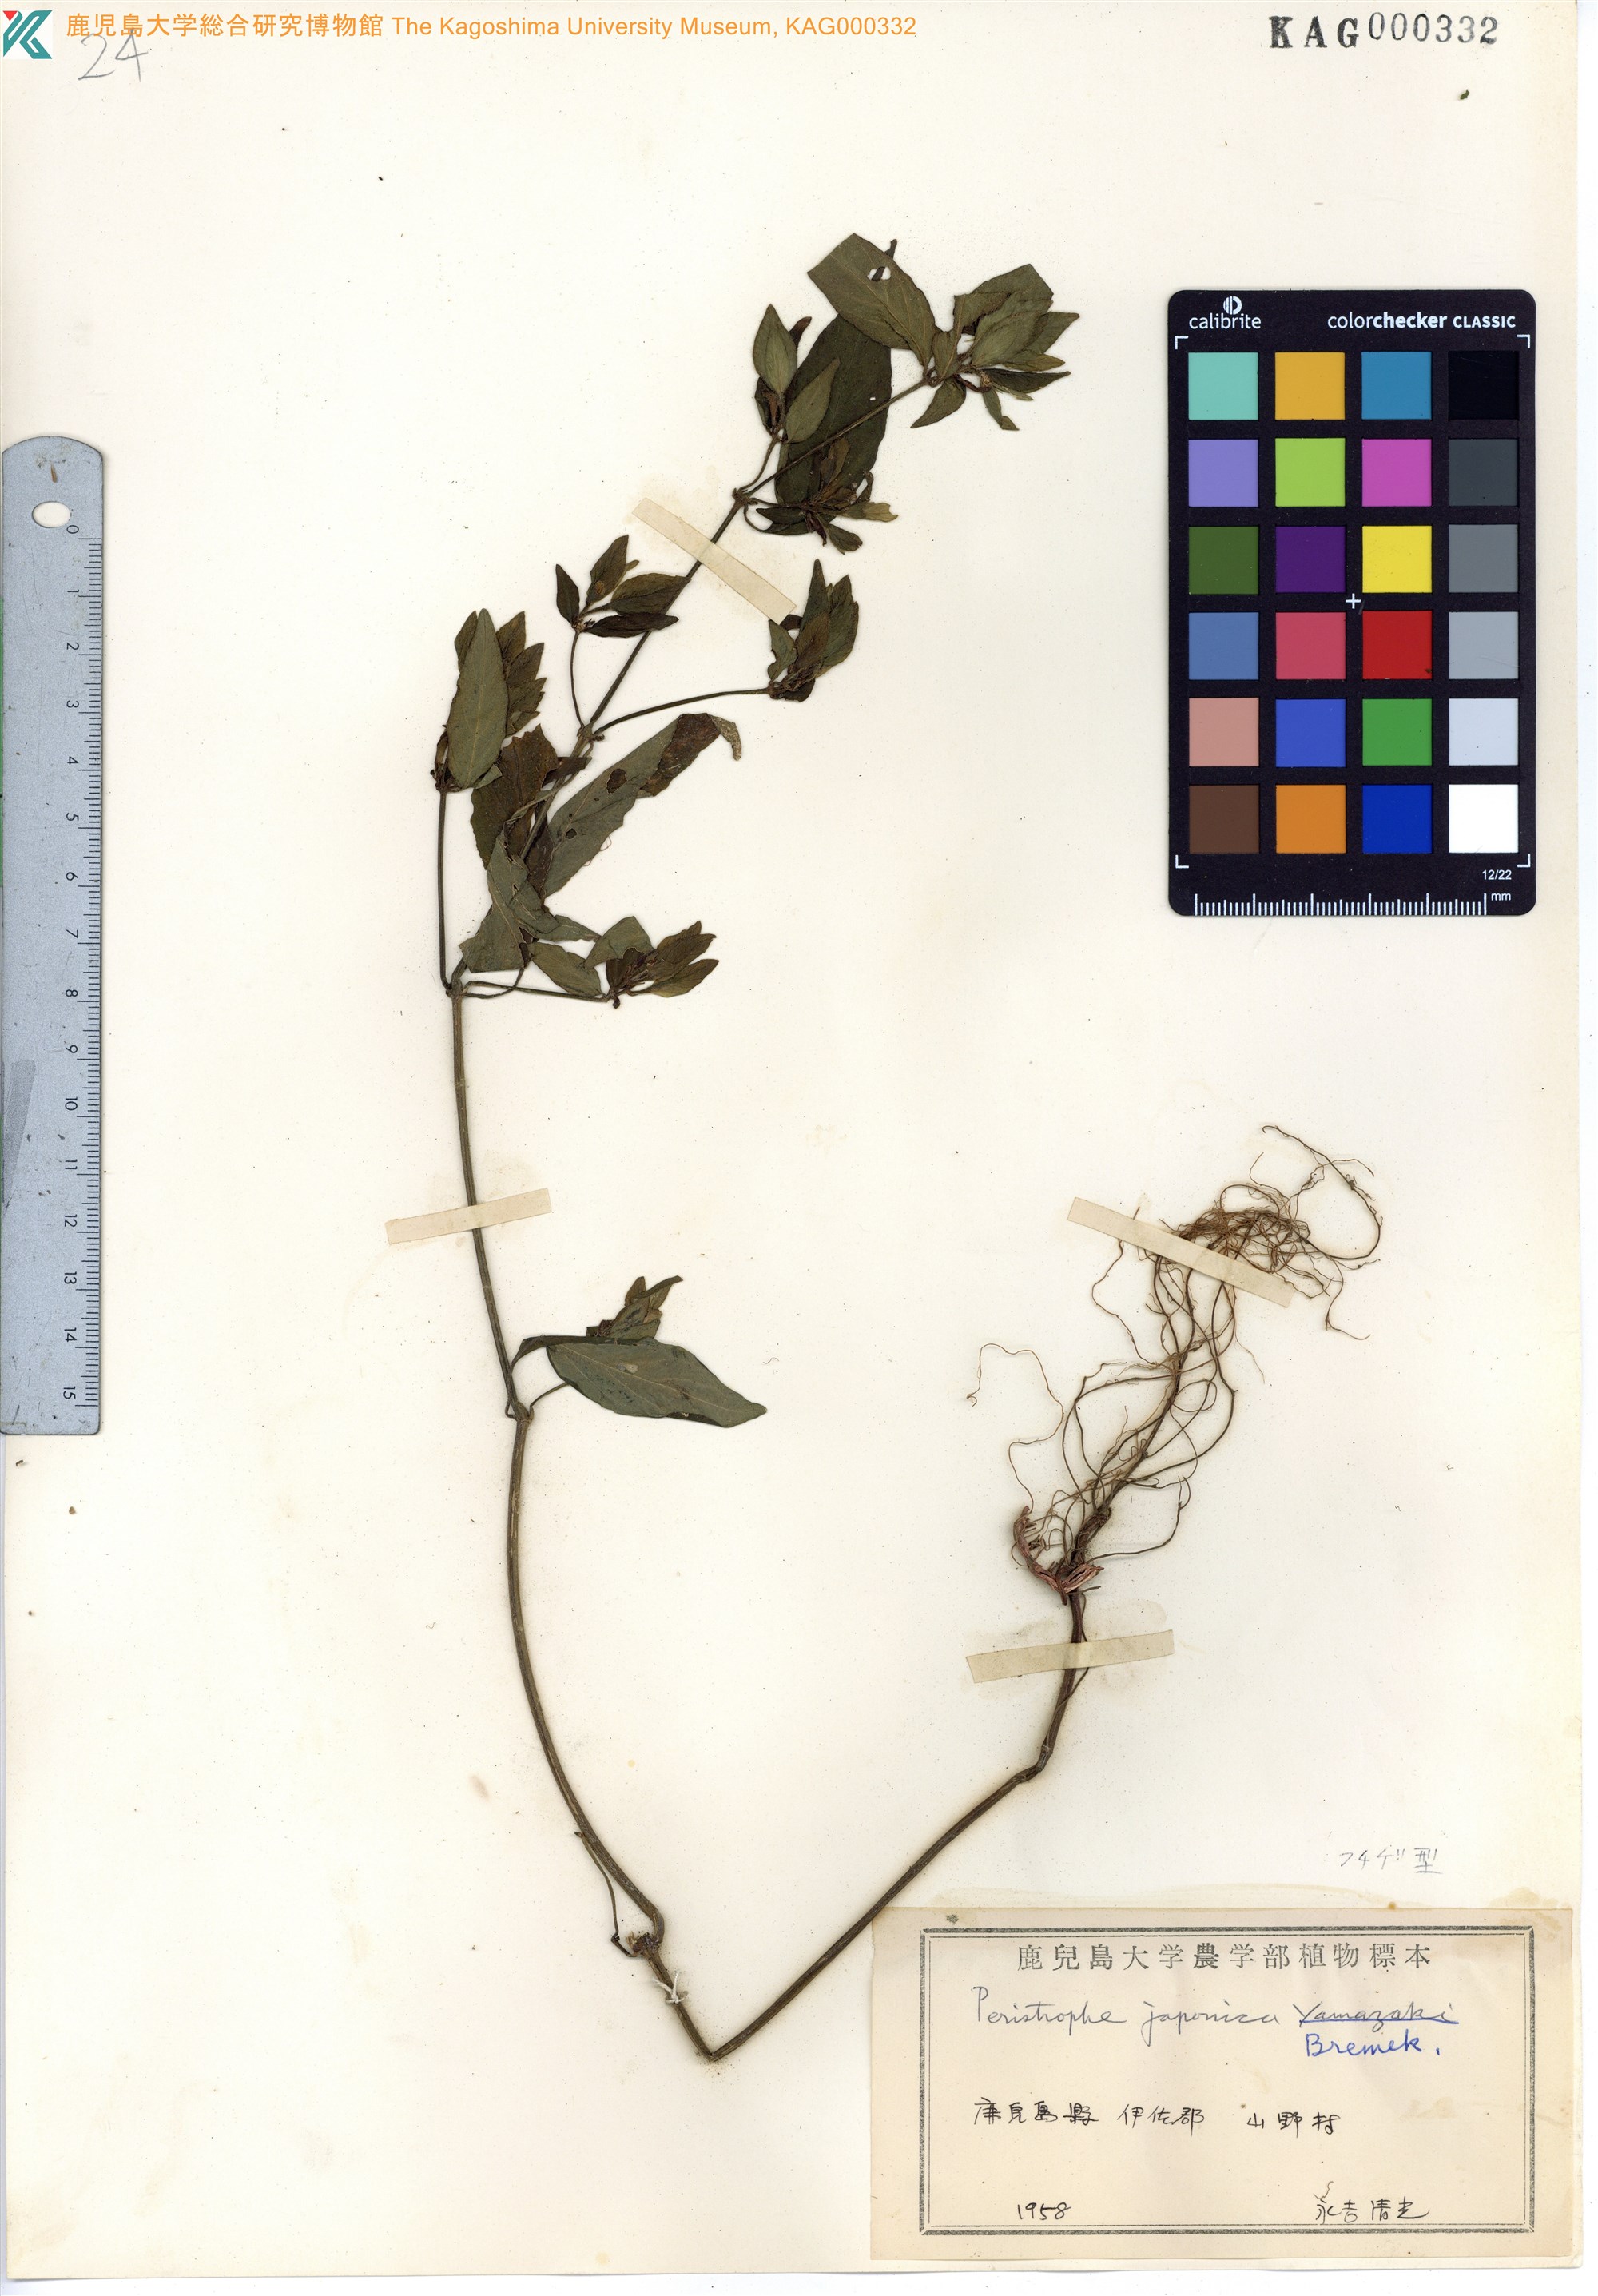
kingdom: Plantae
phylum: Tracheophyta
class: Magnoliopsida
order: Lamiales
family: Acanthaceae
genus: Dicliptera
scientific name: Dicliptera japonica
